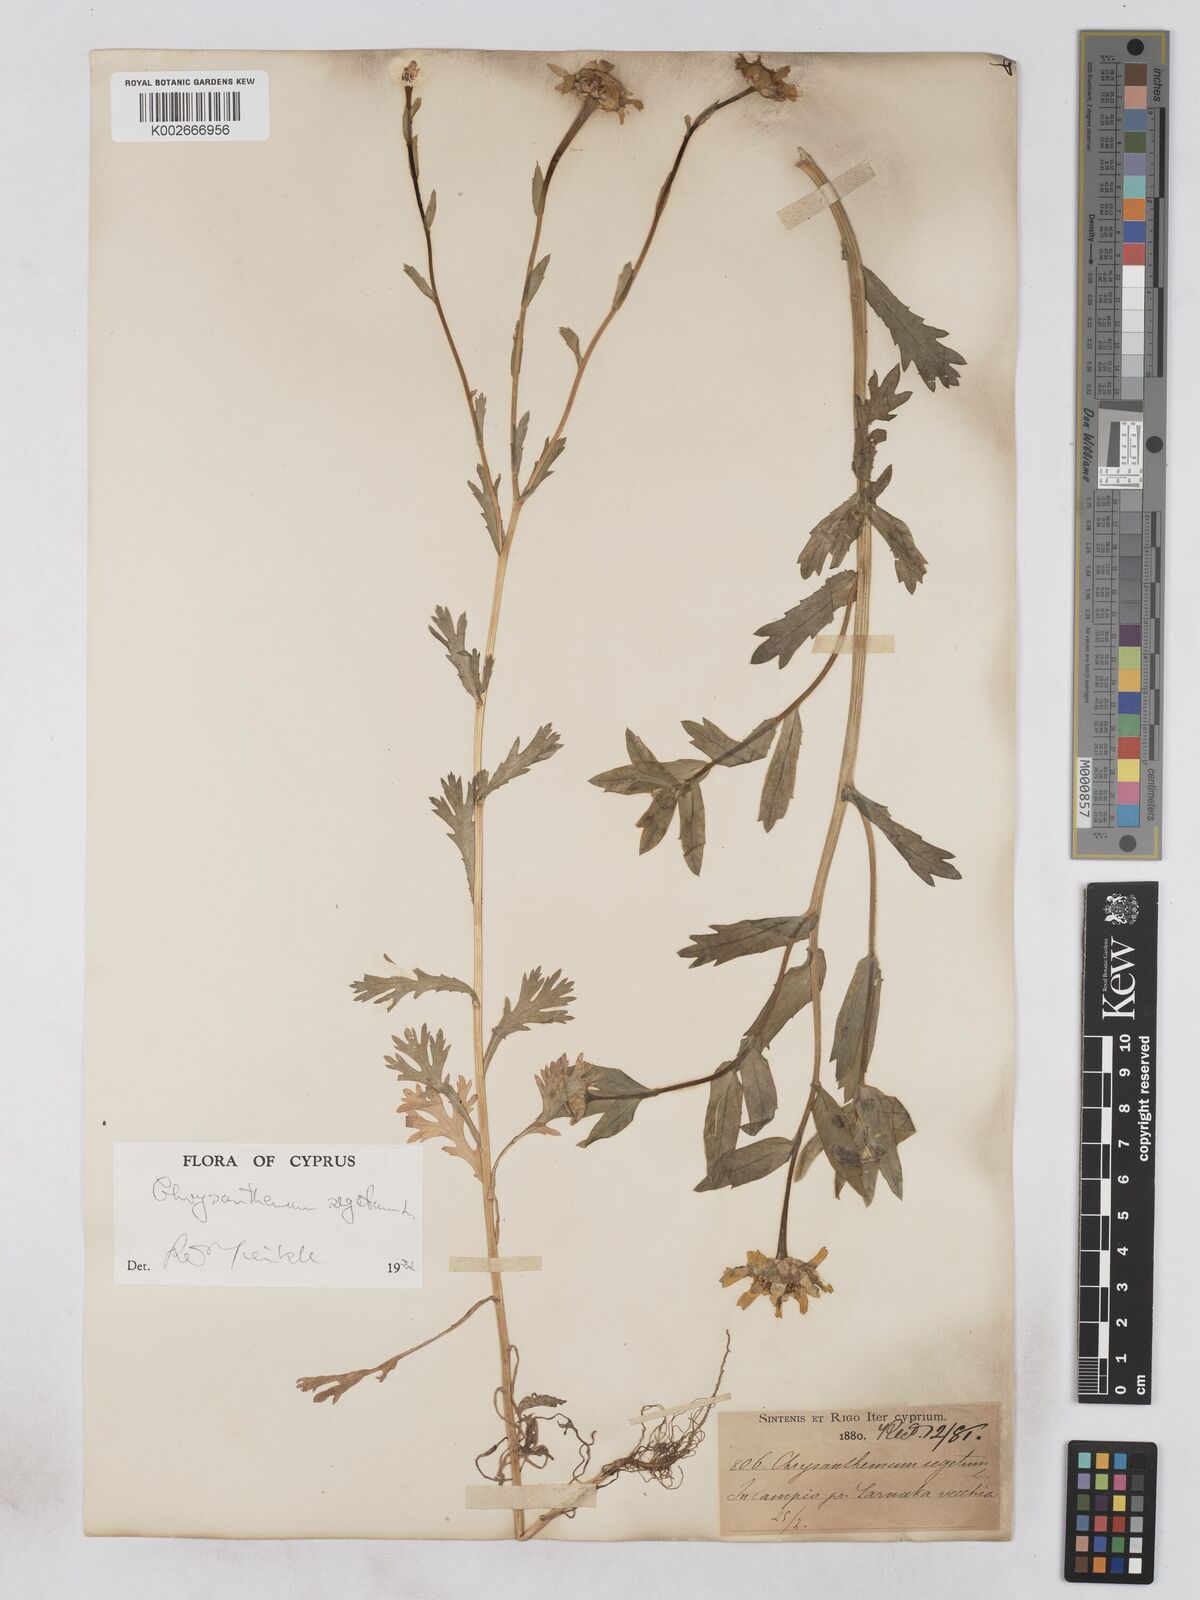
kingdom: Plantae
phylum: Tracheophyta
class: Magnoliopsida
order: Asterales
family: Asteraceae
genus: Glebionis
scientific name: Glebionis segetum
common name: Corndaisy
